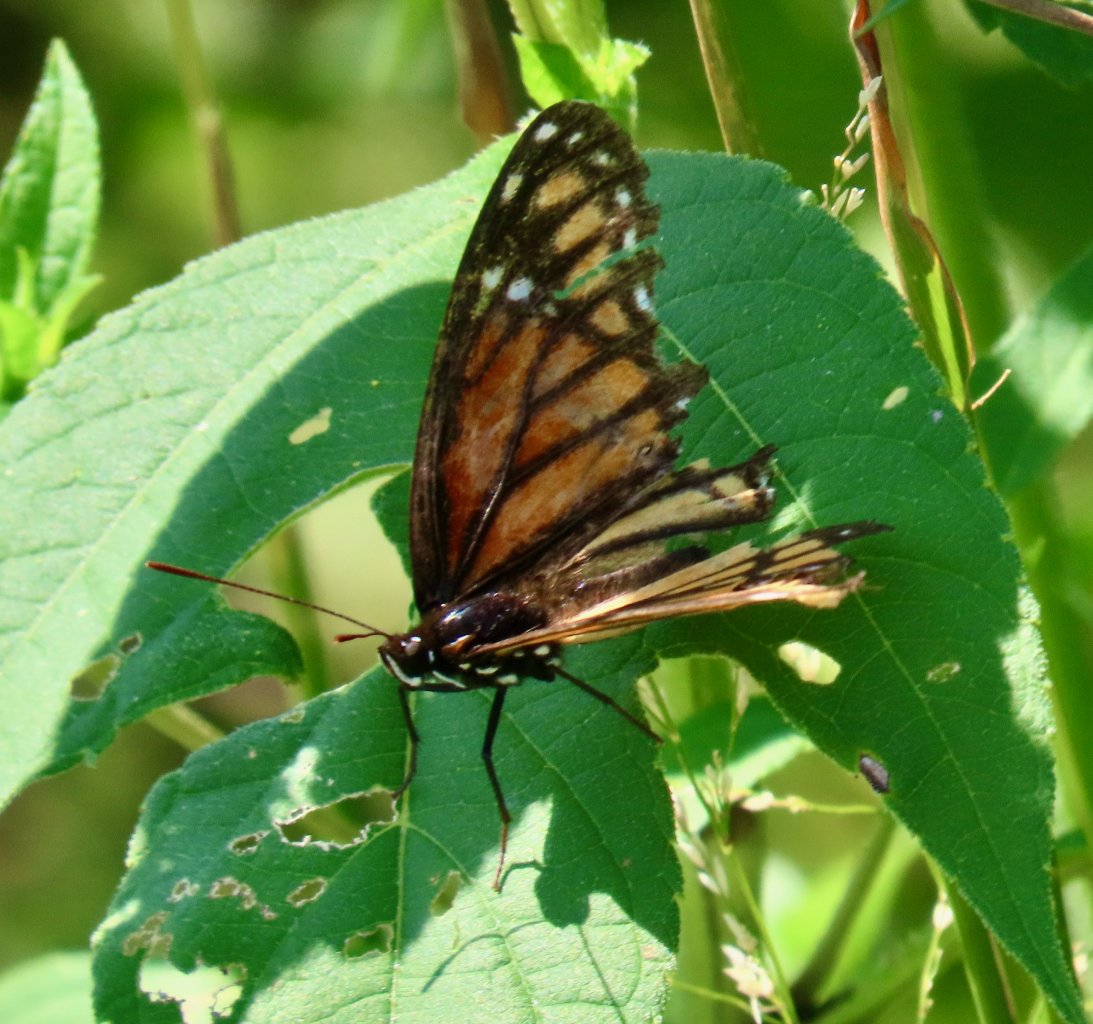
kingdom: Animalia
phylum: Arthropoda
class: Insecta
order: Lepidoptera
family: Nymphalidae
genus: Limenitis
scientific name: Limenitis archippus
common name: Viceroy
